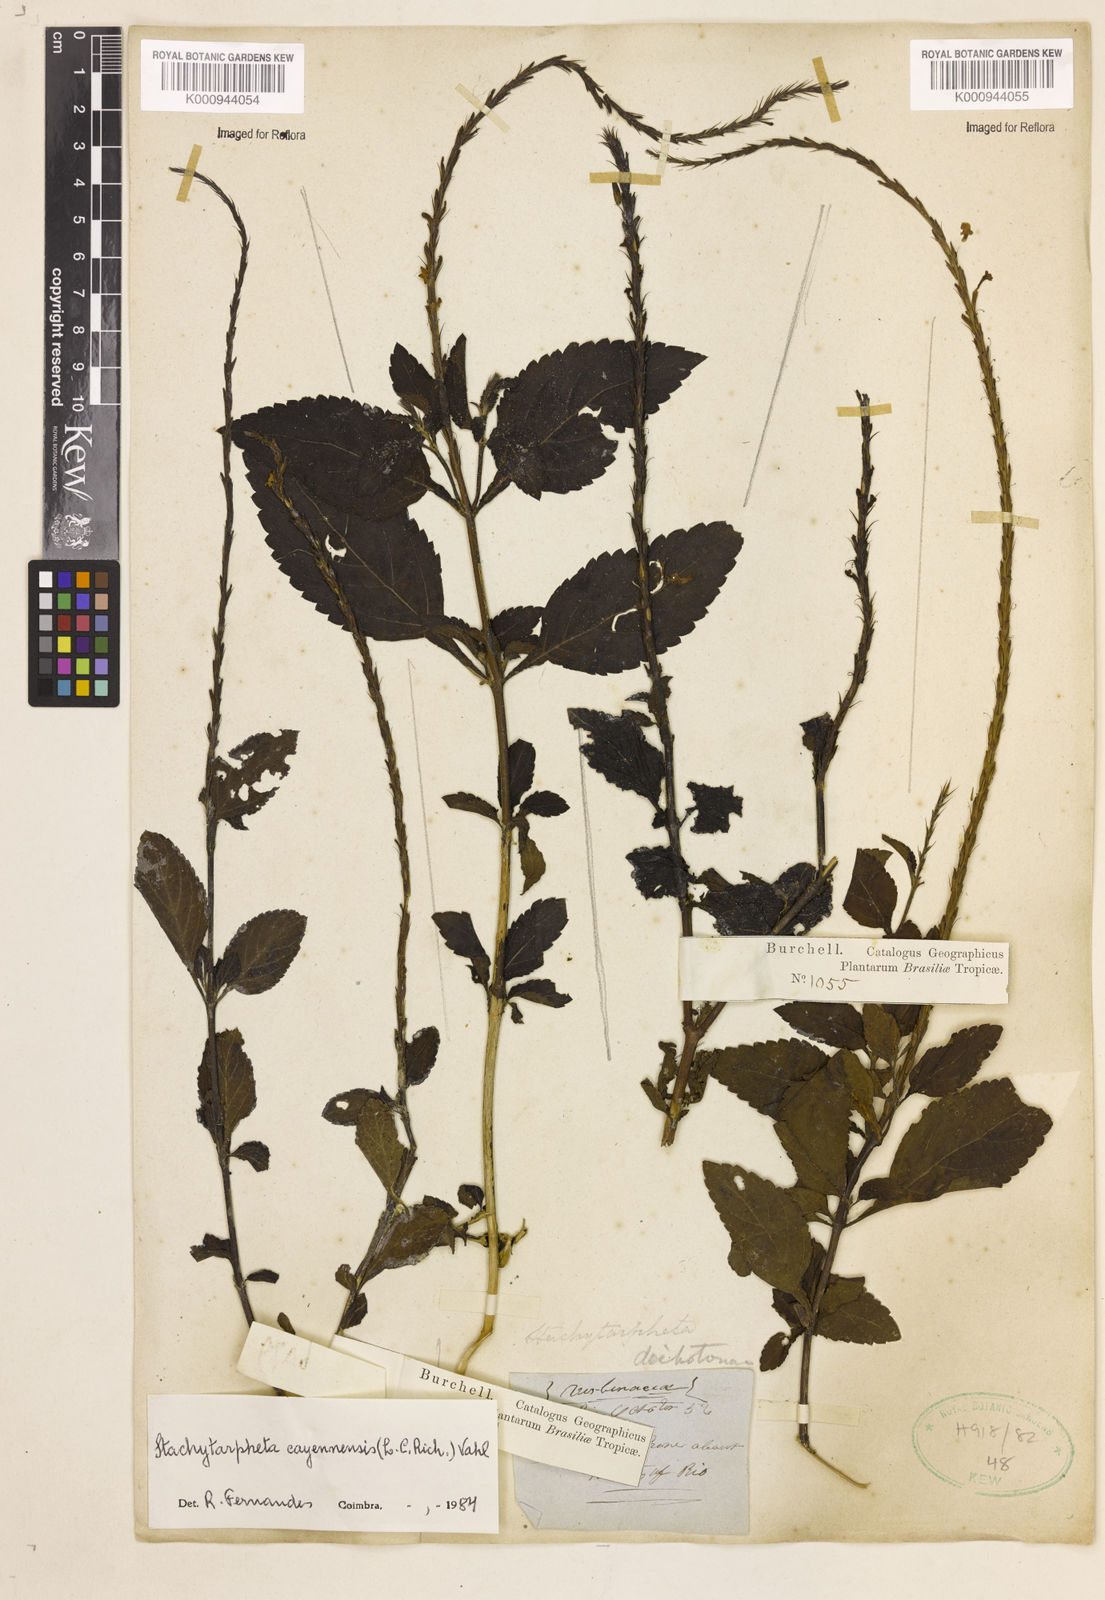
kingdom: Plantae
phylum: Tracheophyta
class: Magnoliopsida
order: Lamiales
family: Verbenaceae
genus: Aloysia
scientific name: Aloysia
